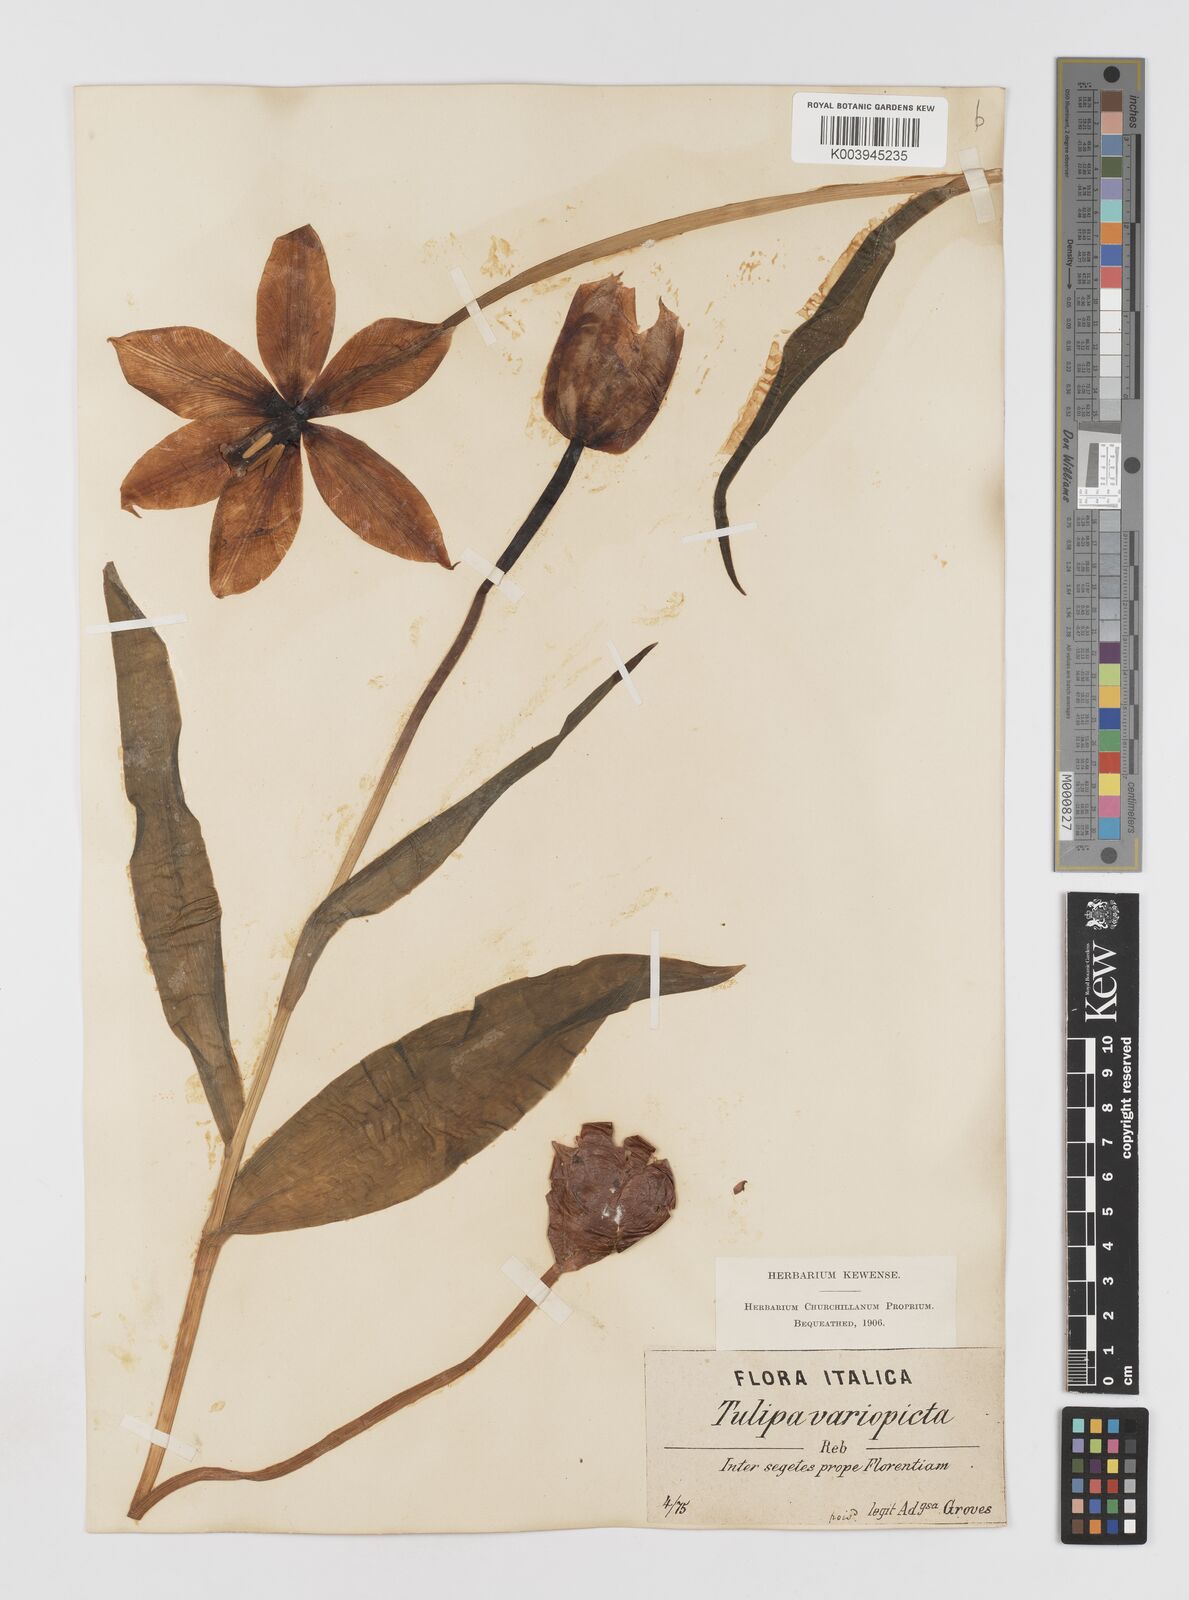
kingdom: Plantae
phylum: Tracheophyta
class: Liliopsida
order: Liliales
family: Liliaceae
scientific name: Liliaceae
